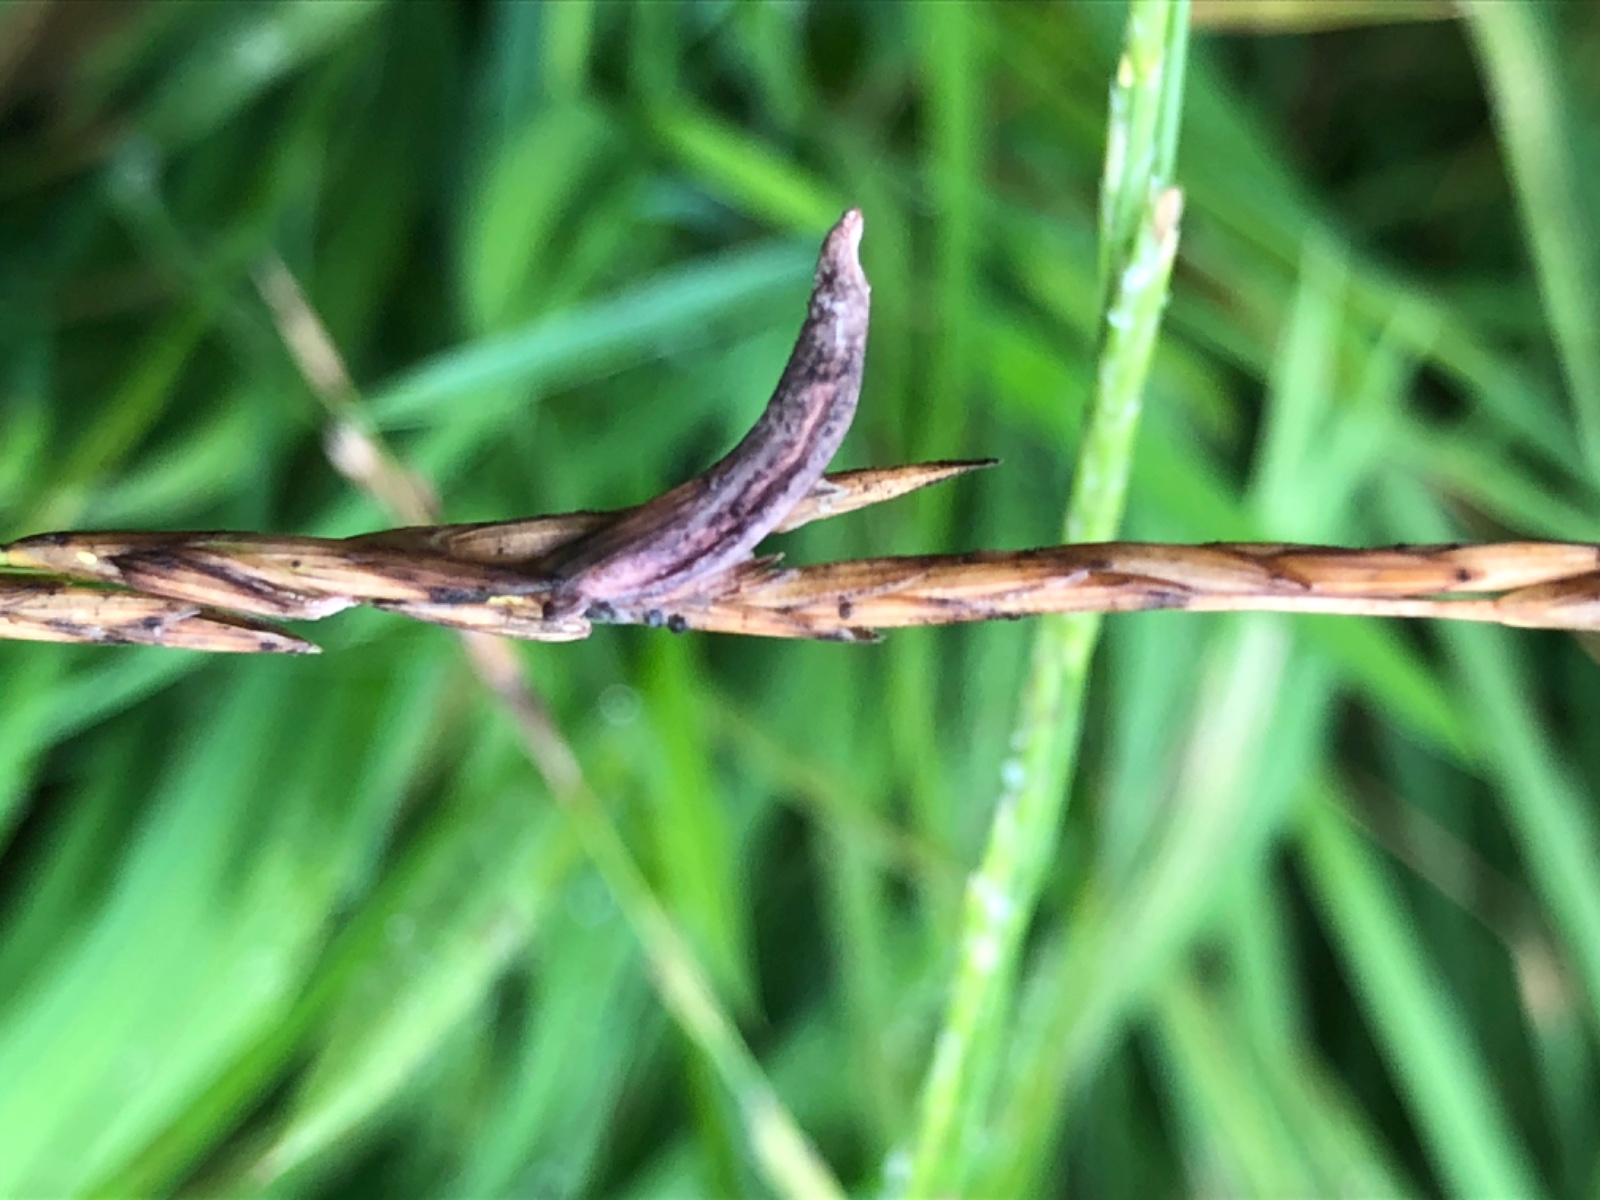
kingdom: Fungi
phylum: Ascomycota
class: Sordariomycetes
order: Hypocreales
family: Clavicipitaceae
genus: Claviceps
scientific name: Claviceps purpurea
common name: almindelig meldrøjer
